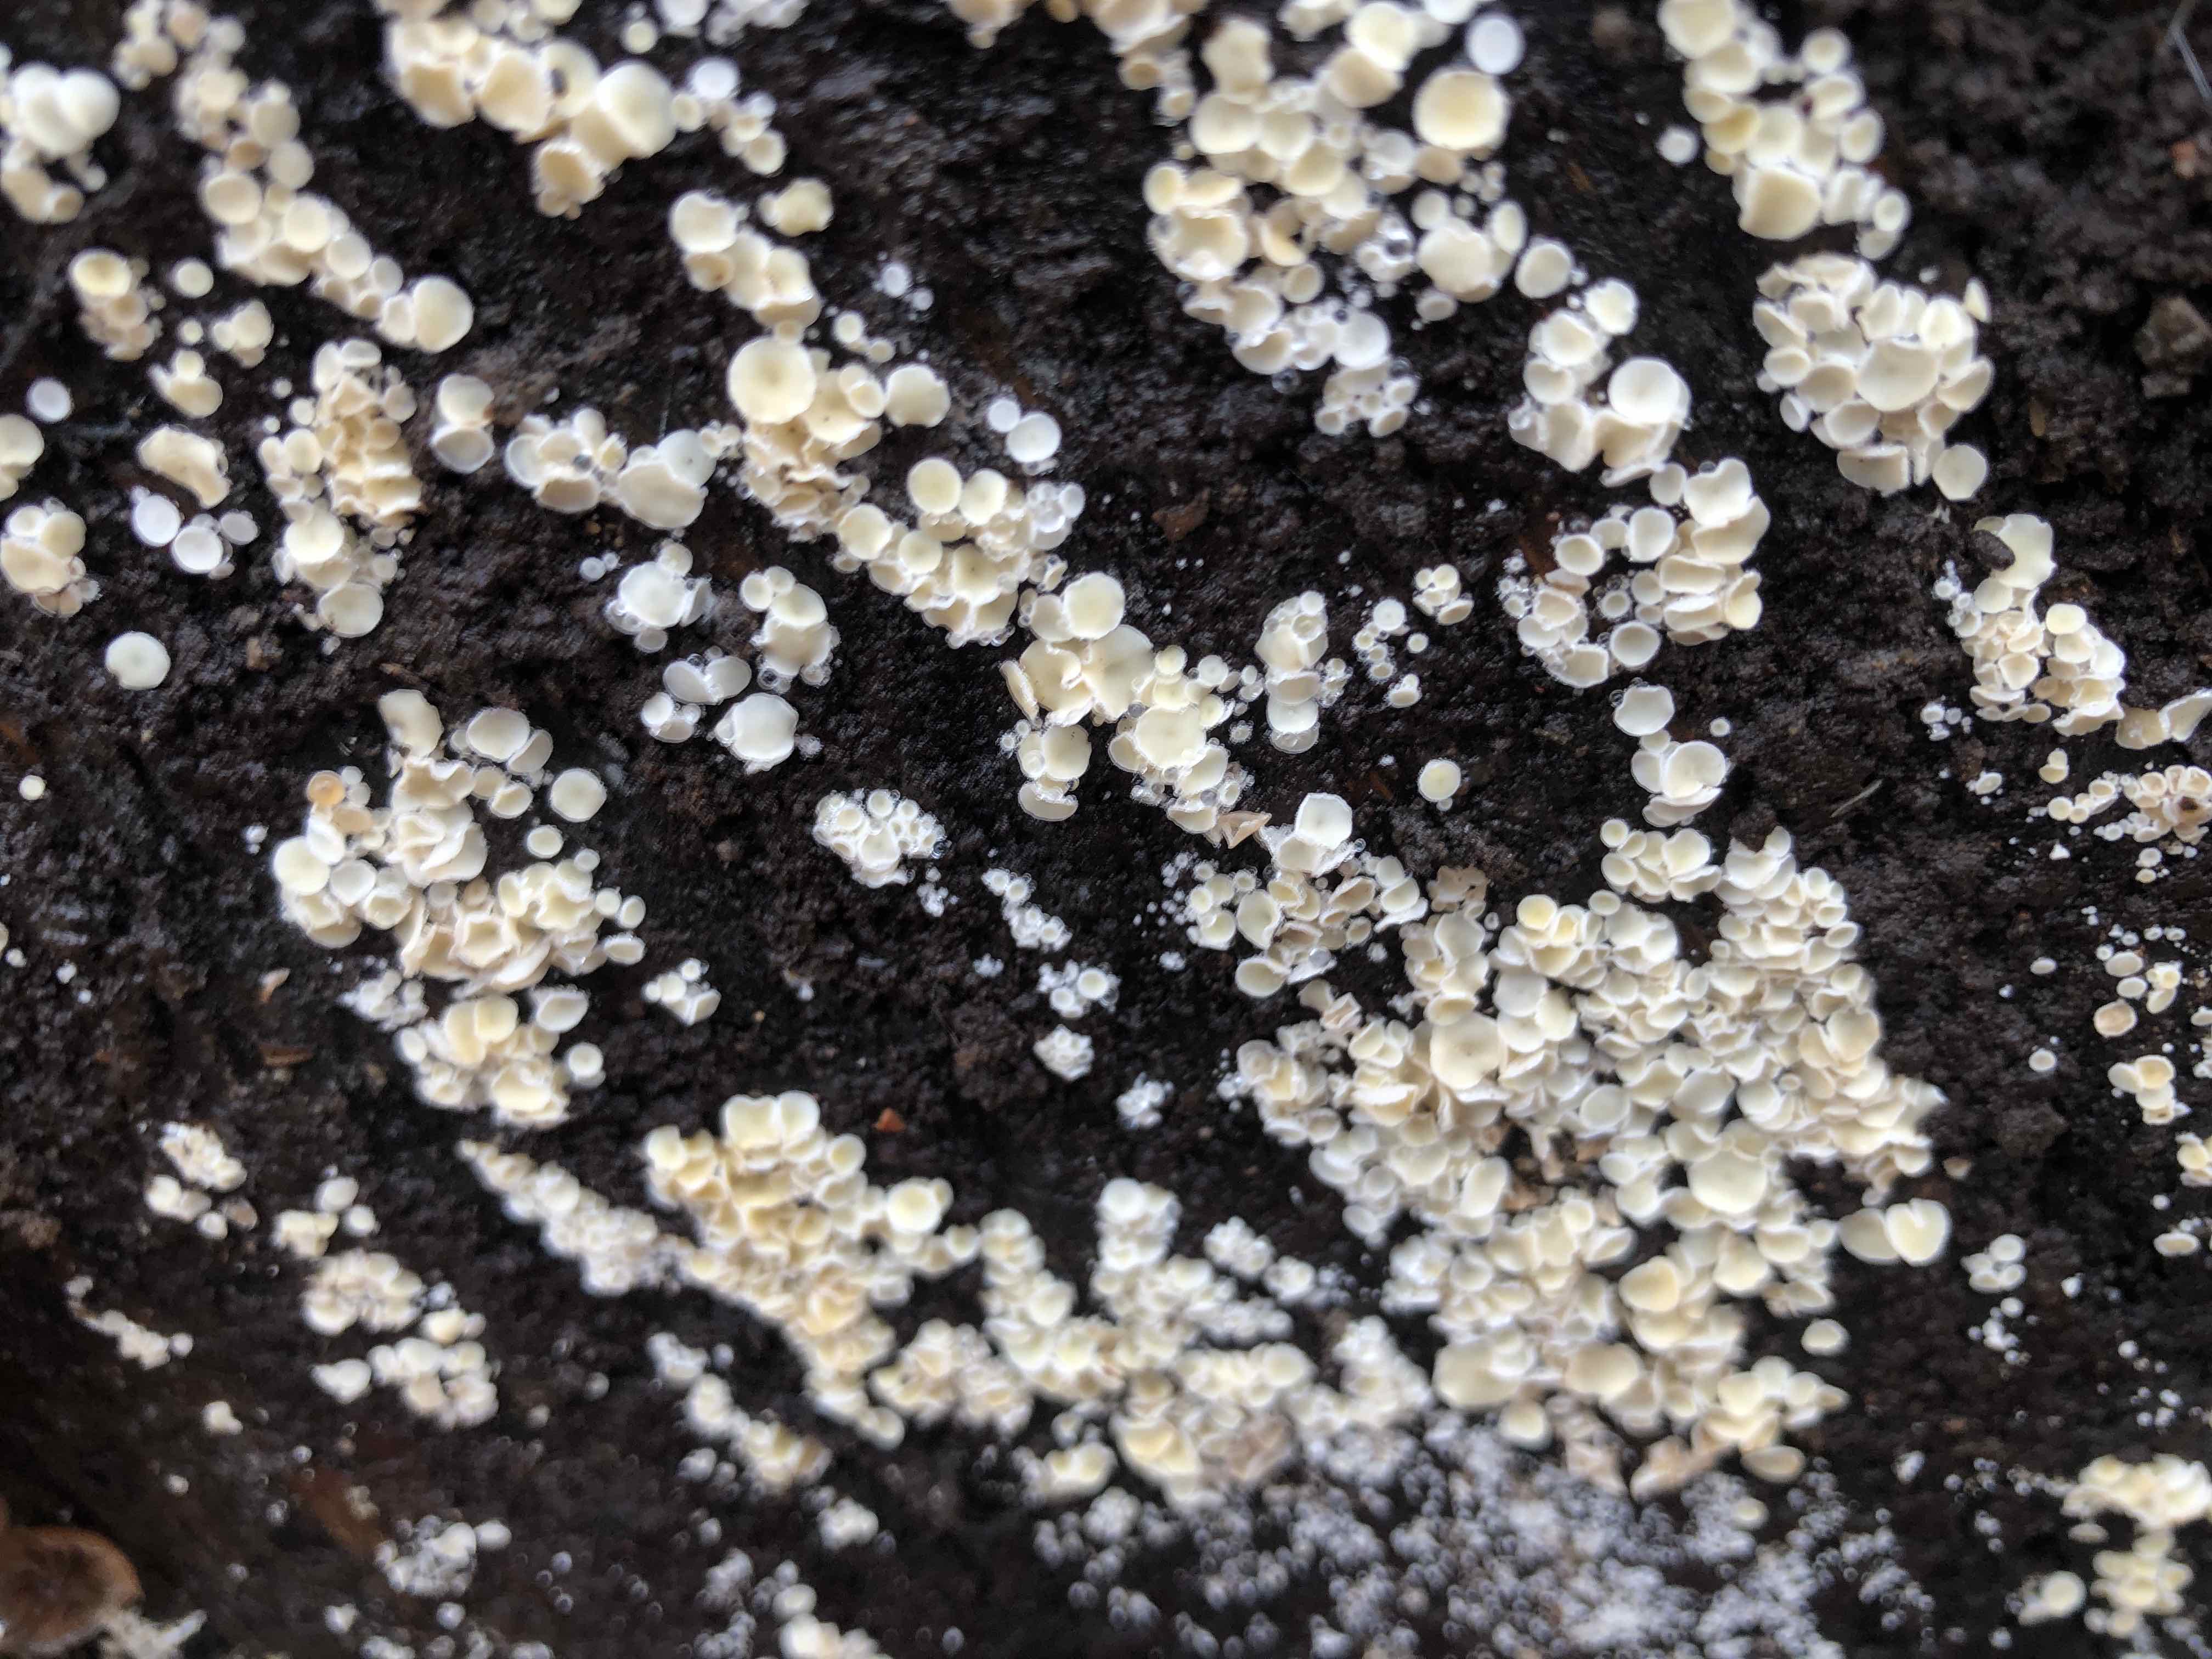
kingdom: Fungi
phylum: Ascomycota
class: Leotiomycetes
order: Helotiales
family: Lachnaceae
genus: Lachnum
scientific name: Lachnum impudicum
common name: vinter-frynseskive
